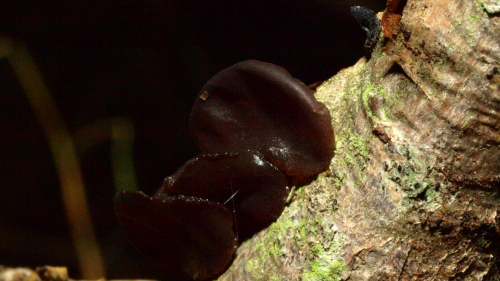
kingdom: Fungi
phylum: Basidiomycota
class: Agaricomycetes
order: Auriculariales
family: Auriculariaceae
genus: Exidia
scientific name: Exidia recisa
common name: pile-bævretop
